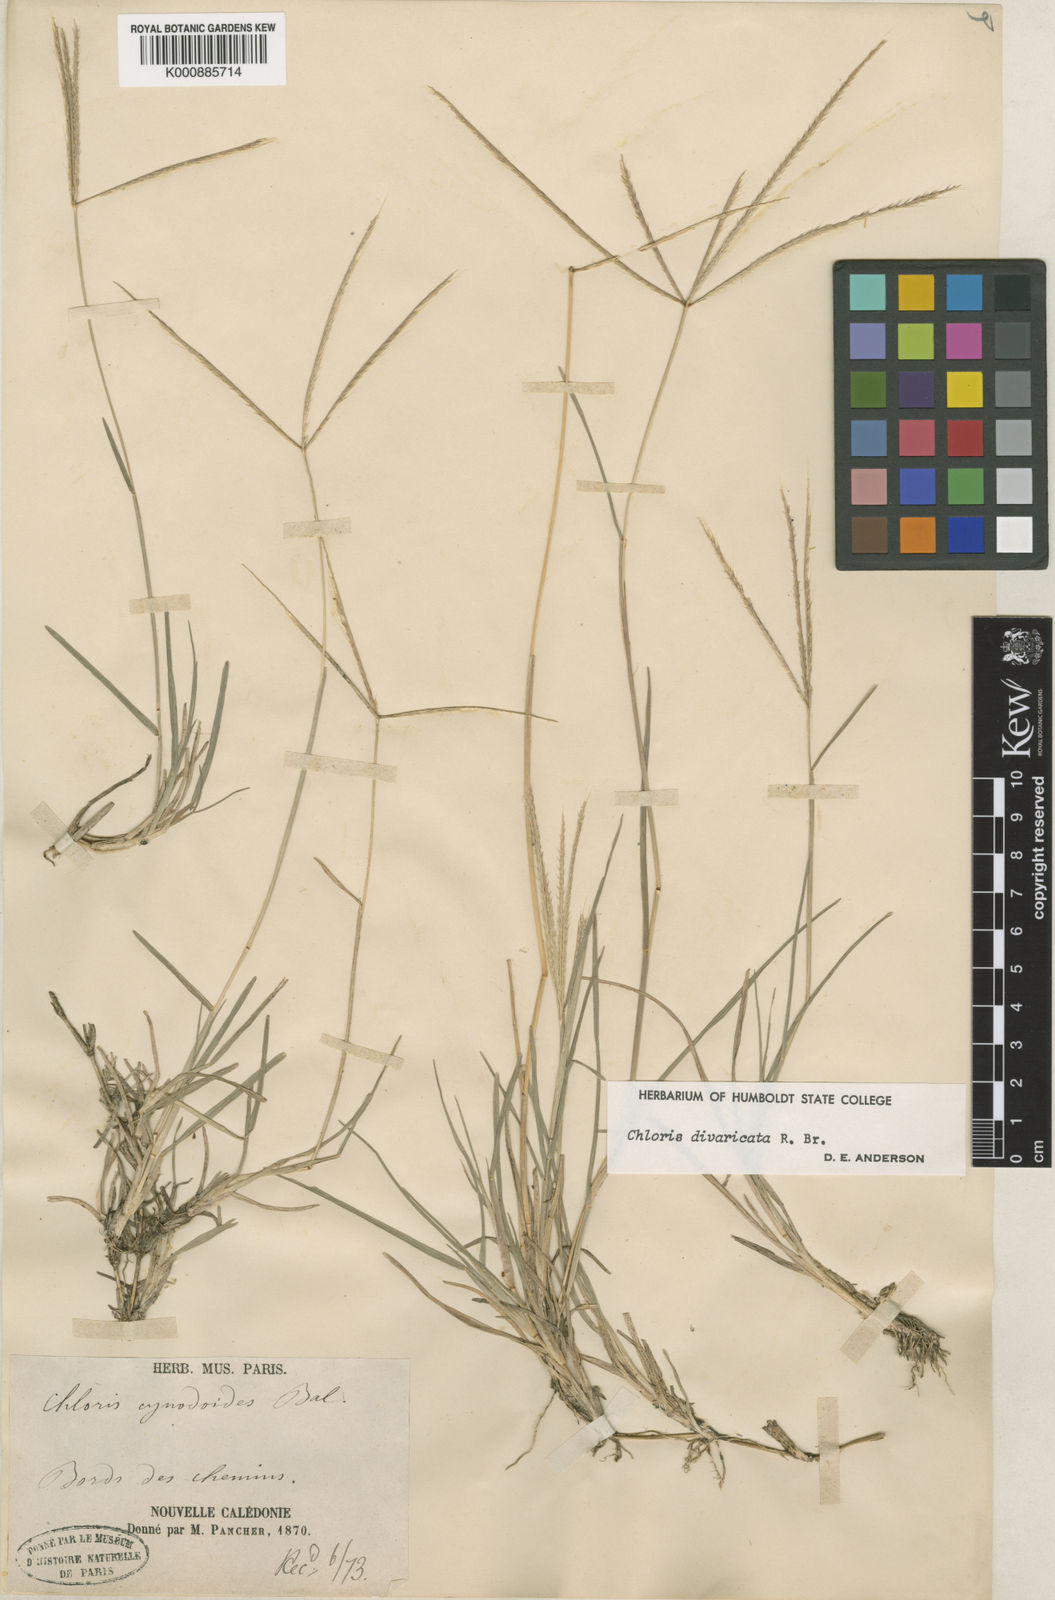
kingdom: Plantae
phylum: Tracheophyta
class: Liliopsida
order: Poales
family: Poaceae
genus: Chloris
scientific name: Chloris divaricata
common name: Spreading windmill grass
